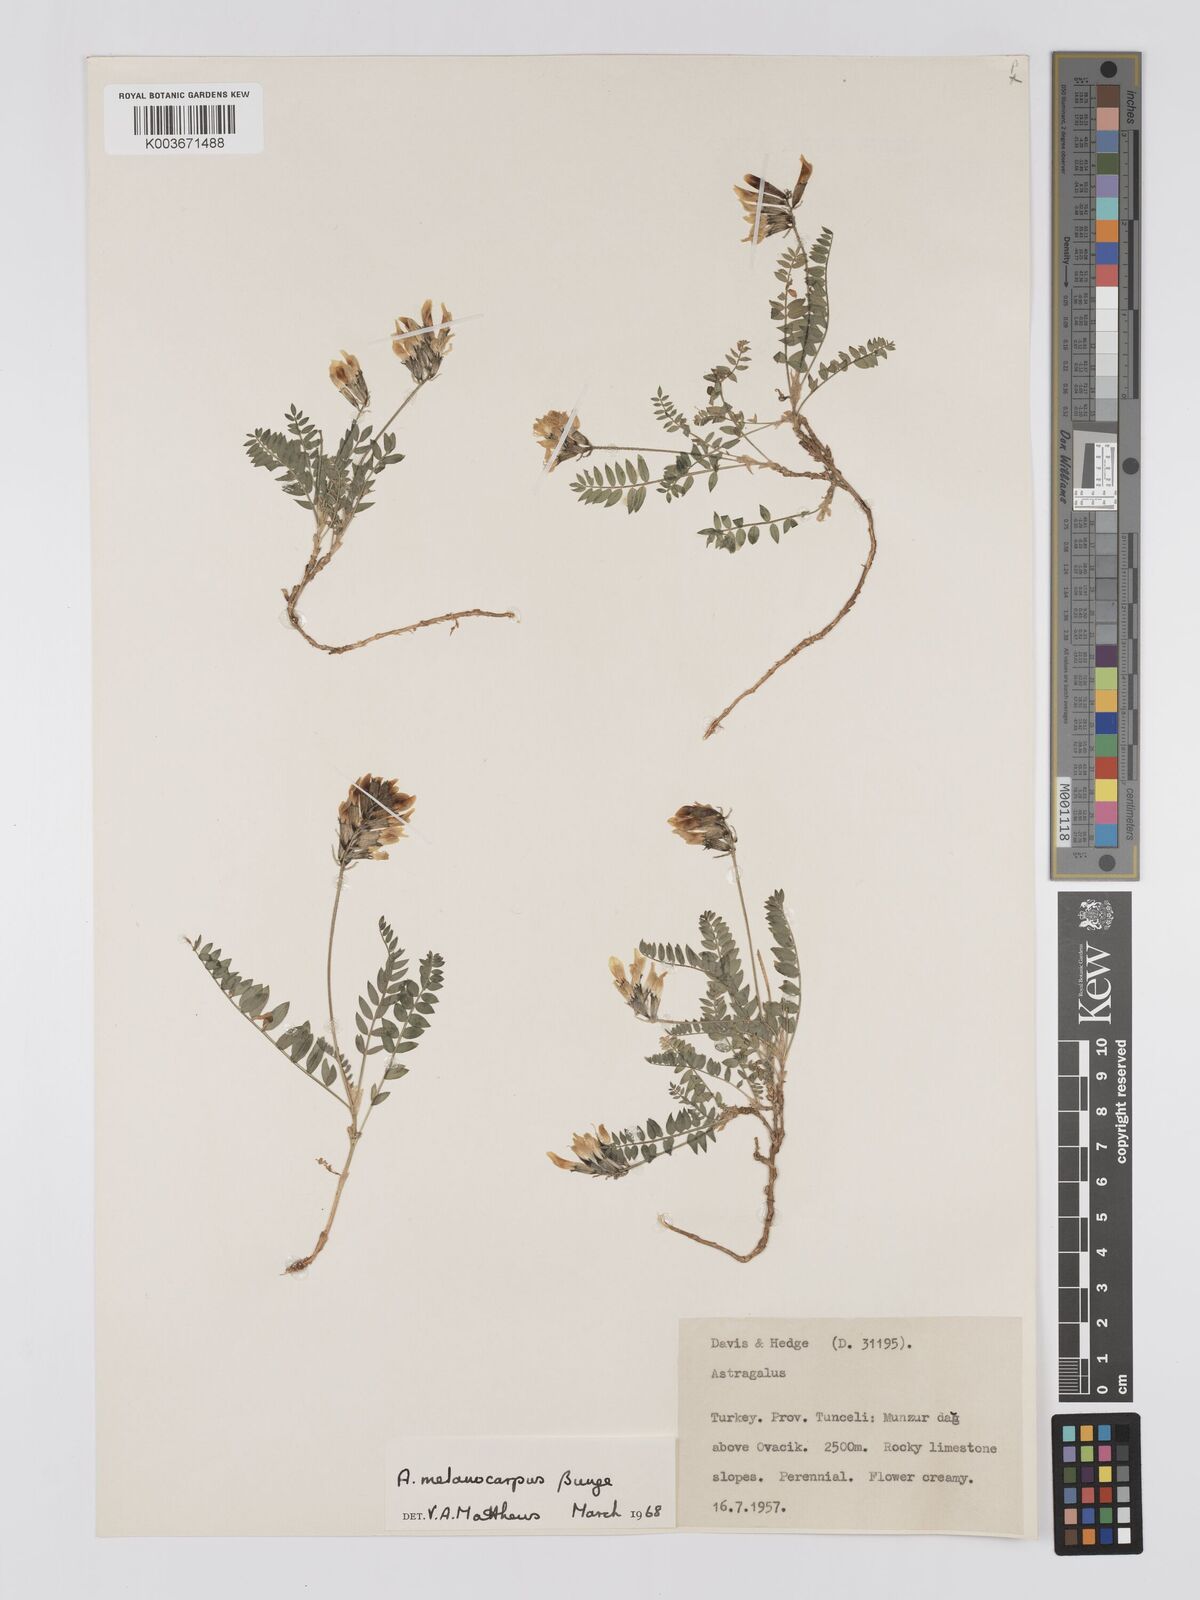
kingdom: Plantae
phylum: Tracheophyta
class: Magnoliopsida
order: Fabales
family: Fabaceae
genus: Astragalus
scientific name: Astragalus atrifructus
